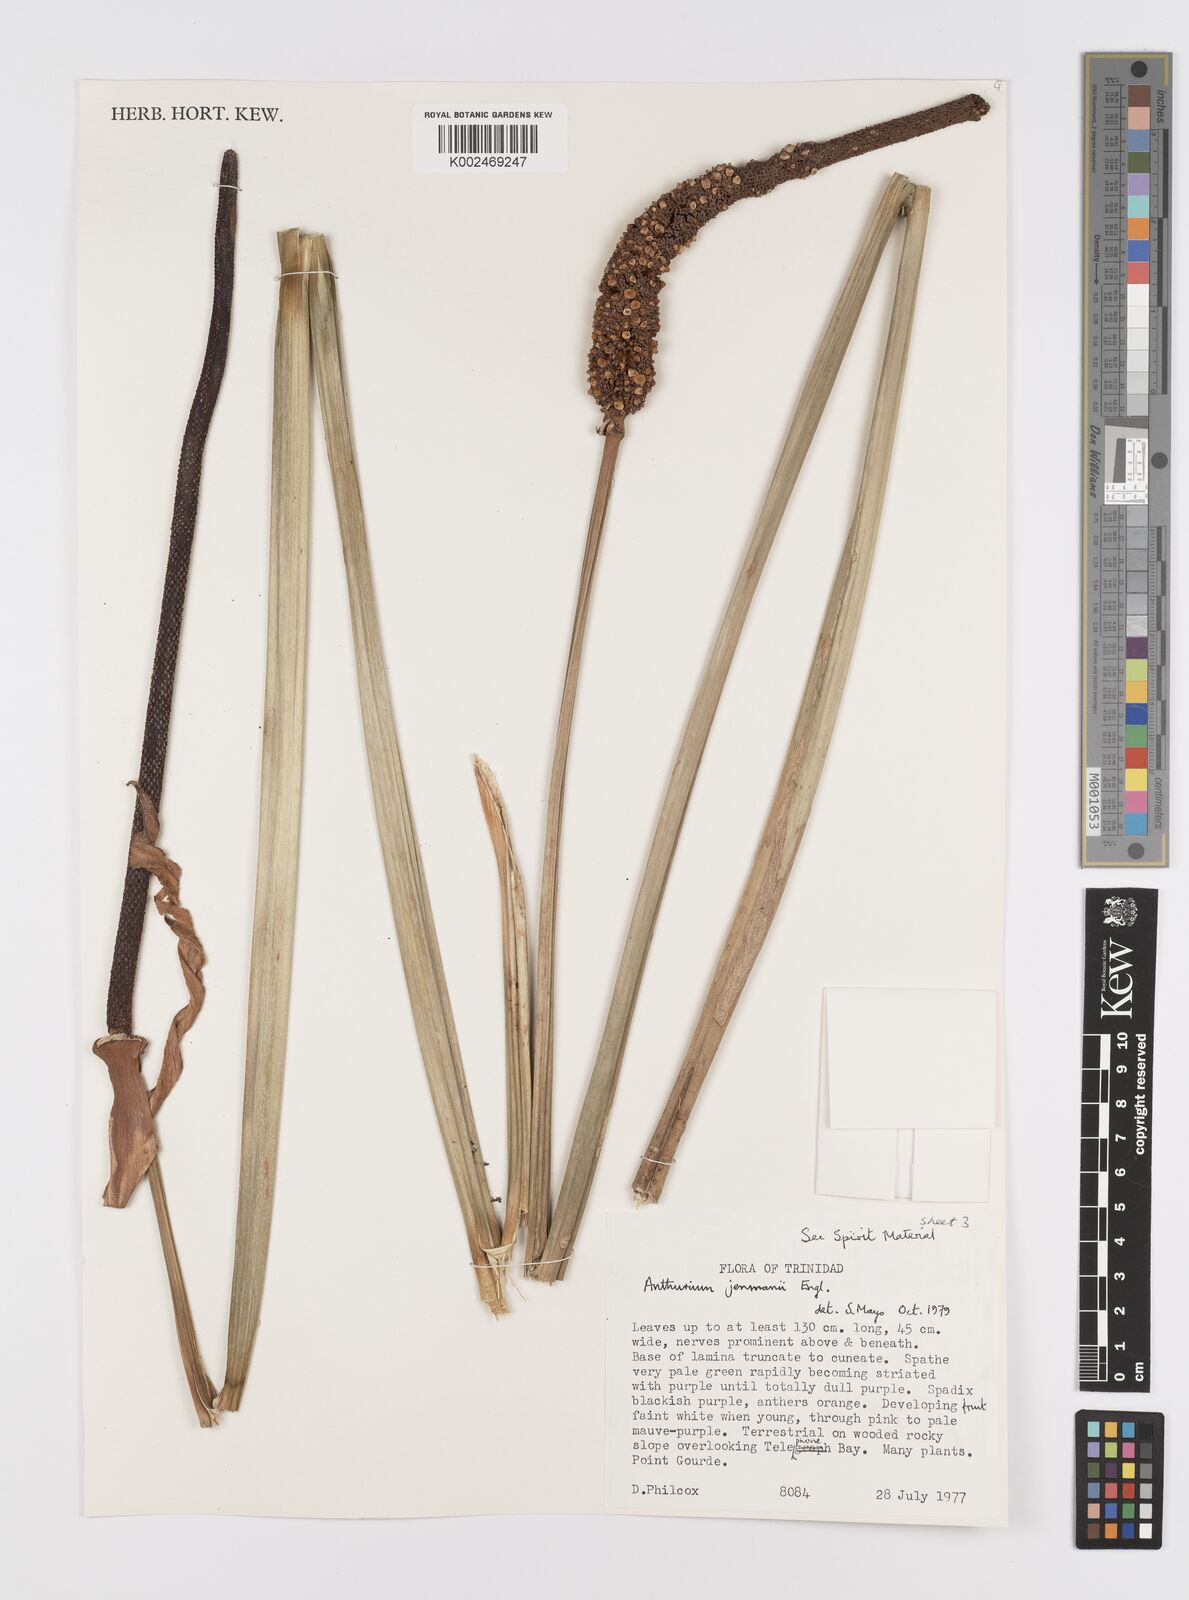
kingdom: Plantae
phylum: Tracheophyta
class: Liliopsida
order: Alismatales
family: Araceae
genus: Anthurium
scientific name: Anthurium jenmanii
